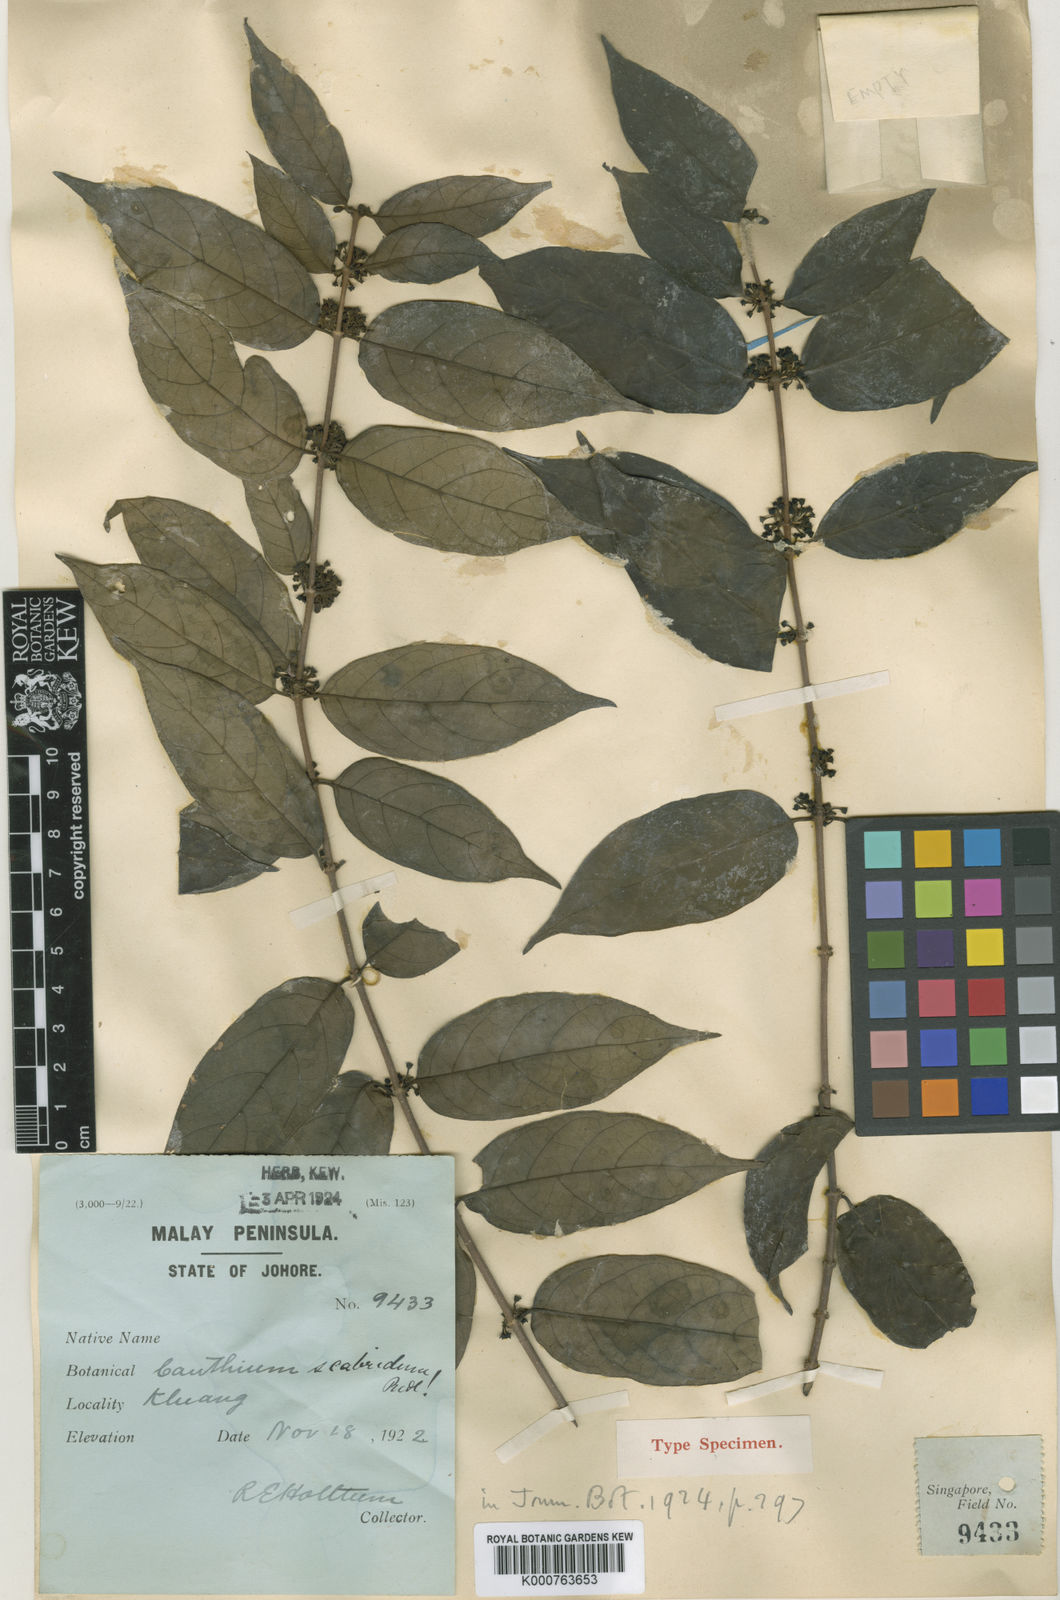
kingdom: Plantae
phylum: Tracheophyta
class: Magnoliopsida
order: Gentianales
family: Rubiaceae
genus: Canthium
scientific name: Canthium scabridum
